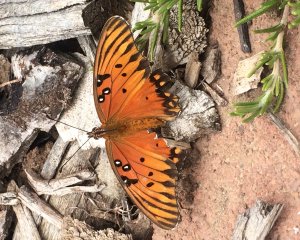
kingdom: Animalia
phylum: Arthropoda
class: Insecta
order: Lepidoptera
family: Nymphalidae
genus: Dione
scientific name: Dione vanillae
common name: Gulf Fritillary
